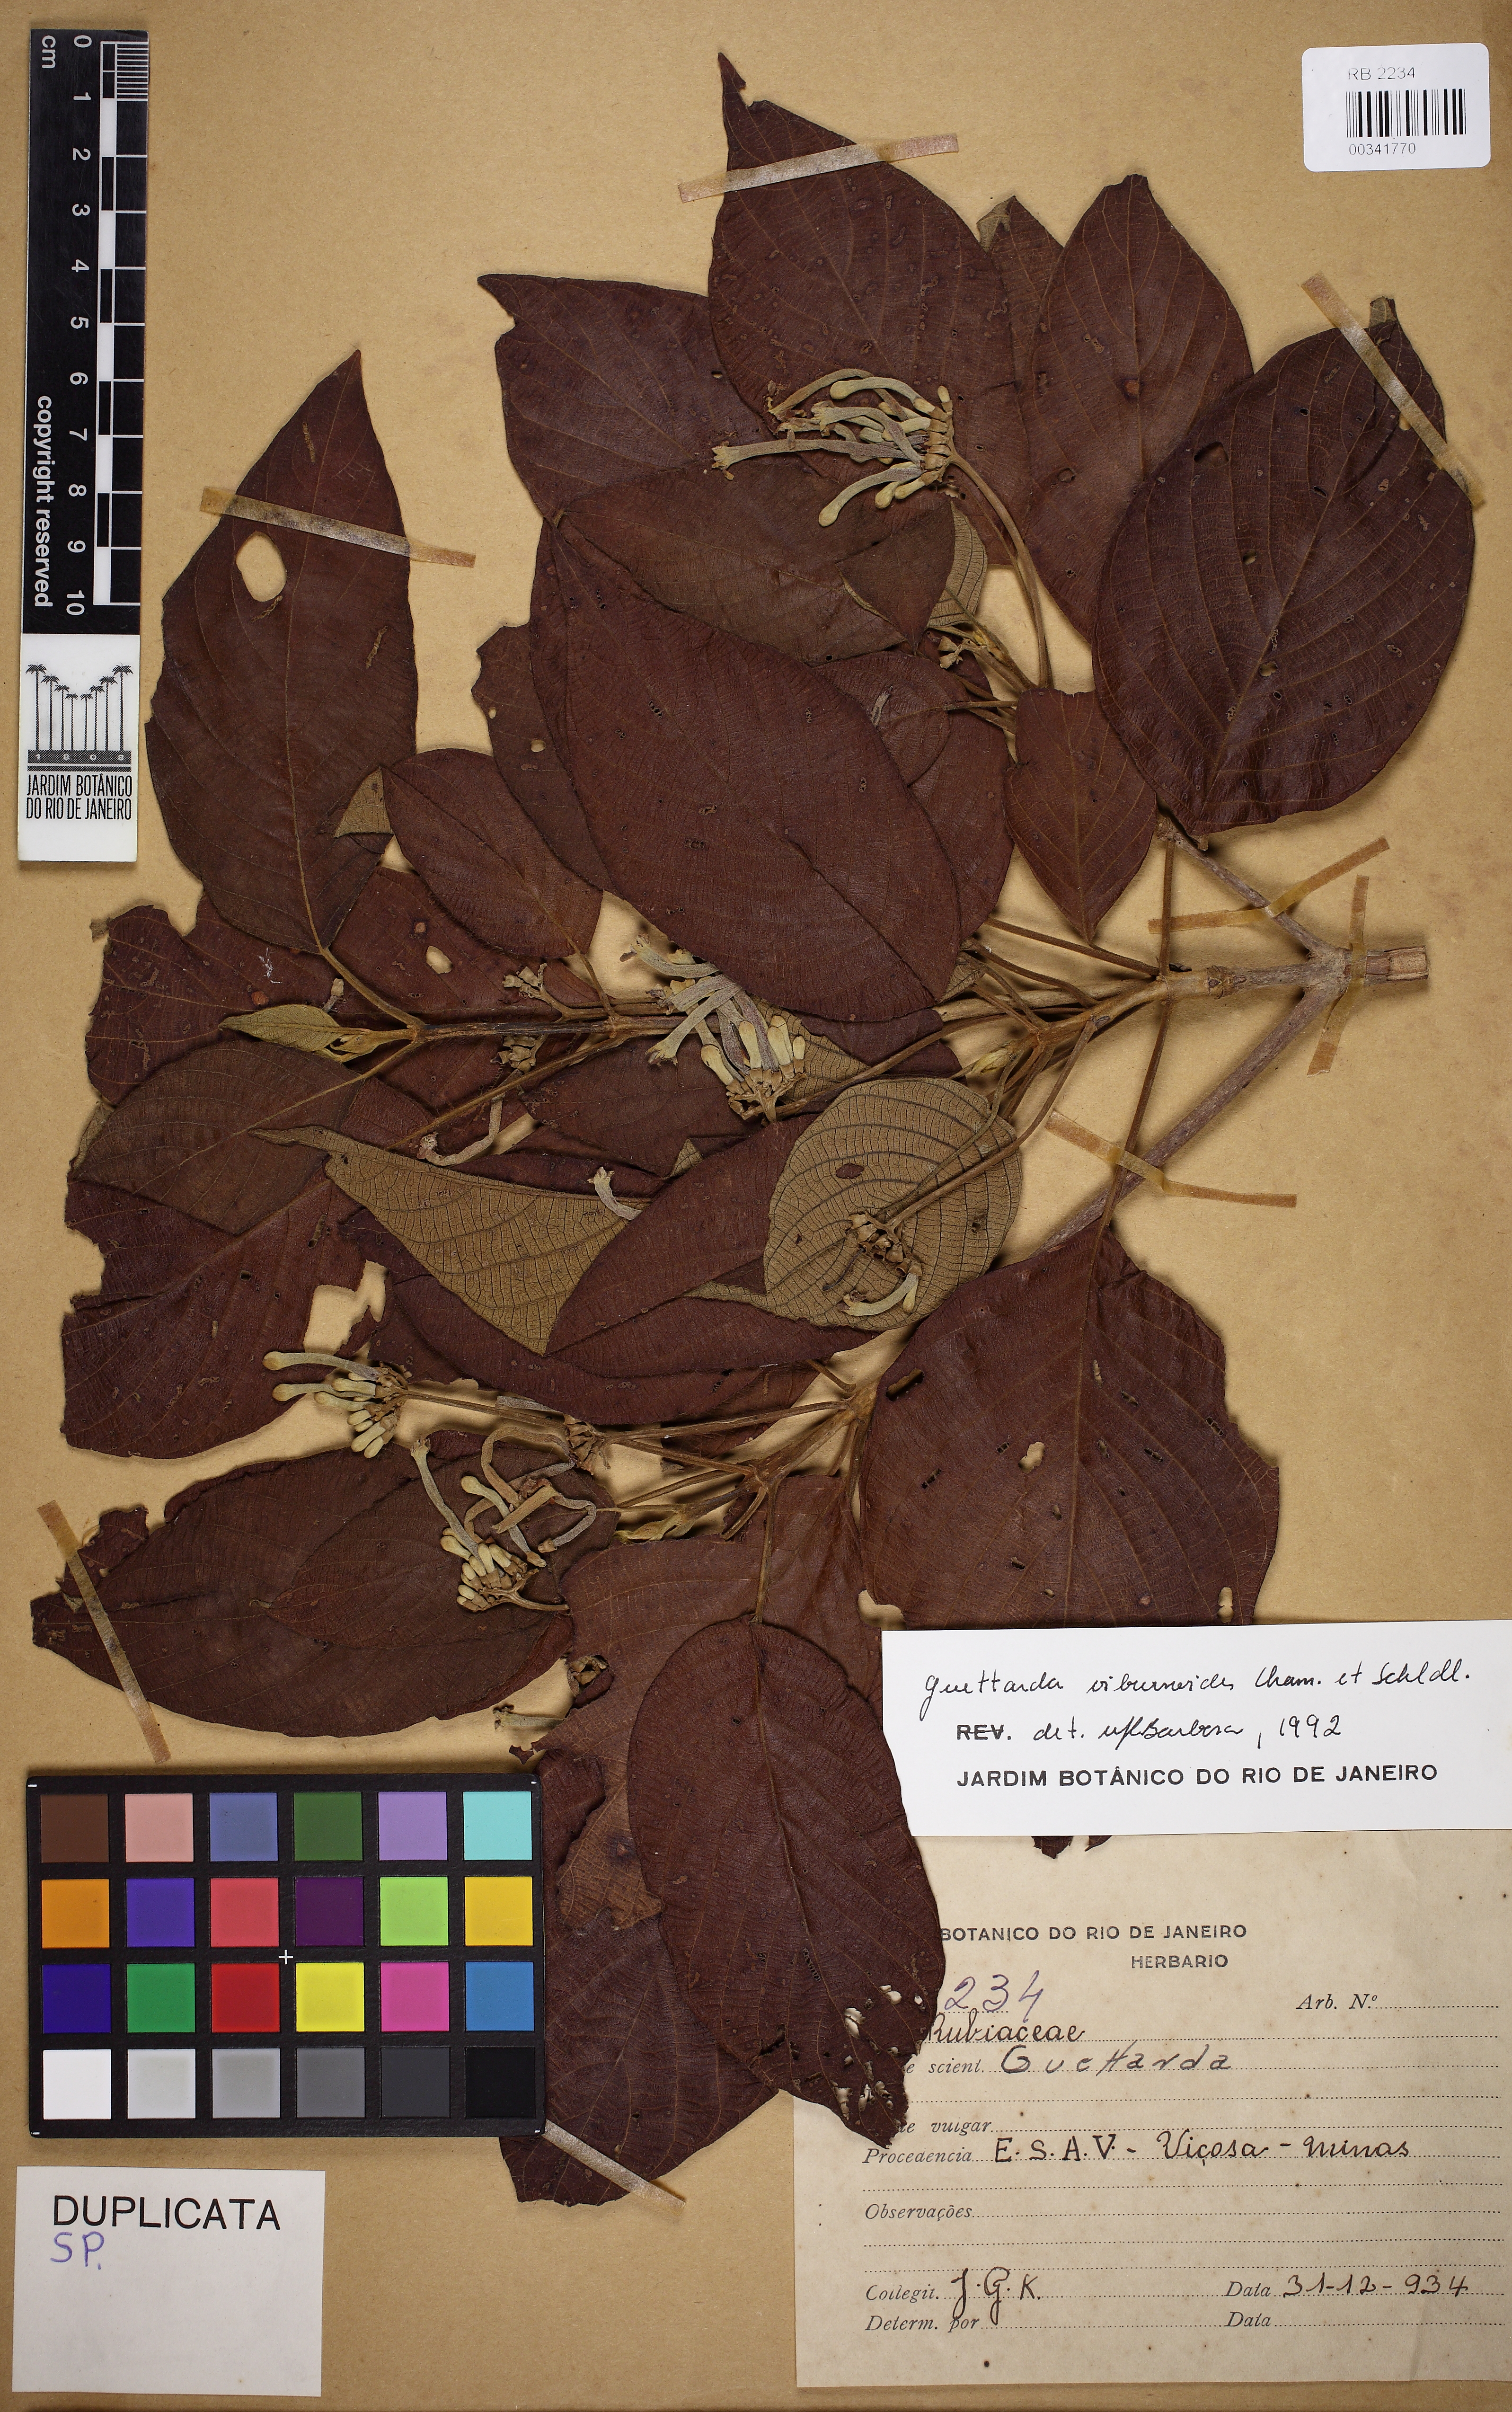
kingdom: Plantae
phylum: Tracheophyta
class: Magnoliopsida
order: Gentianales
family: Rubiaceae
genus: Guettarda
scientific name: Guettarda viburnoides
